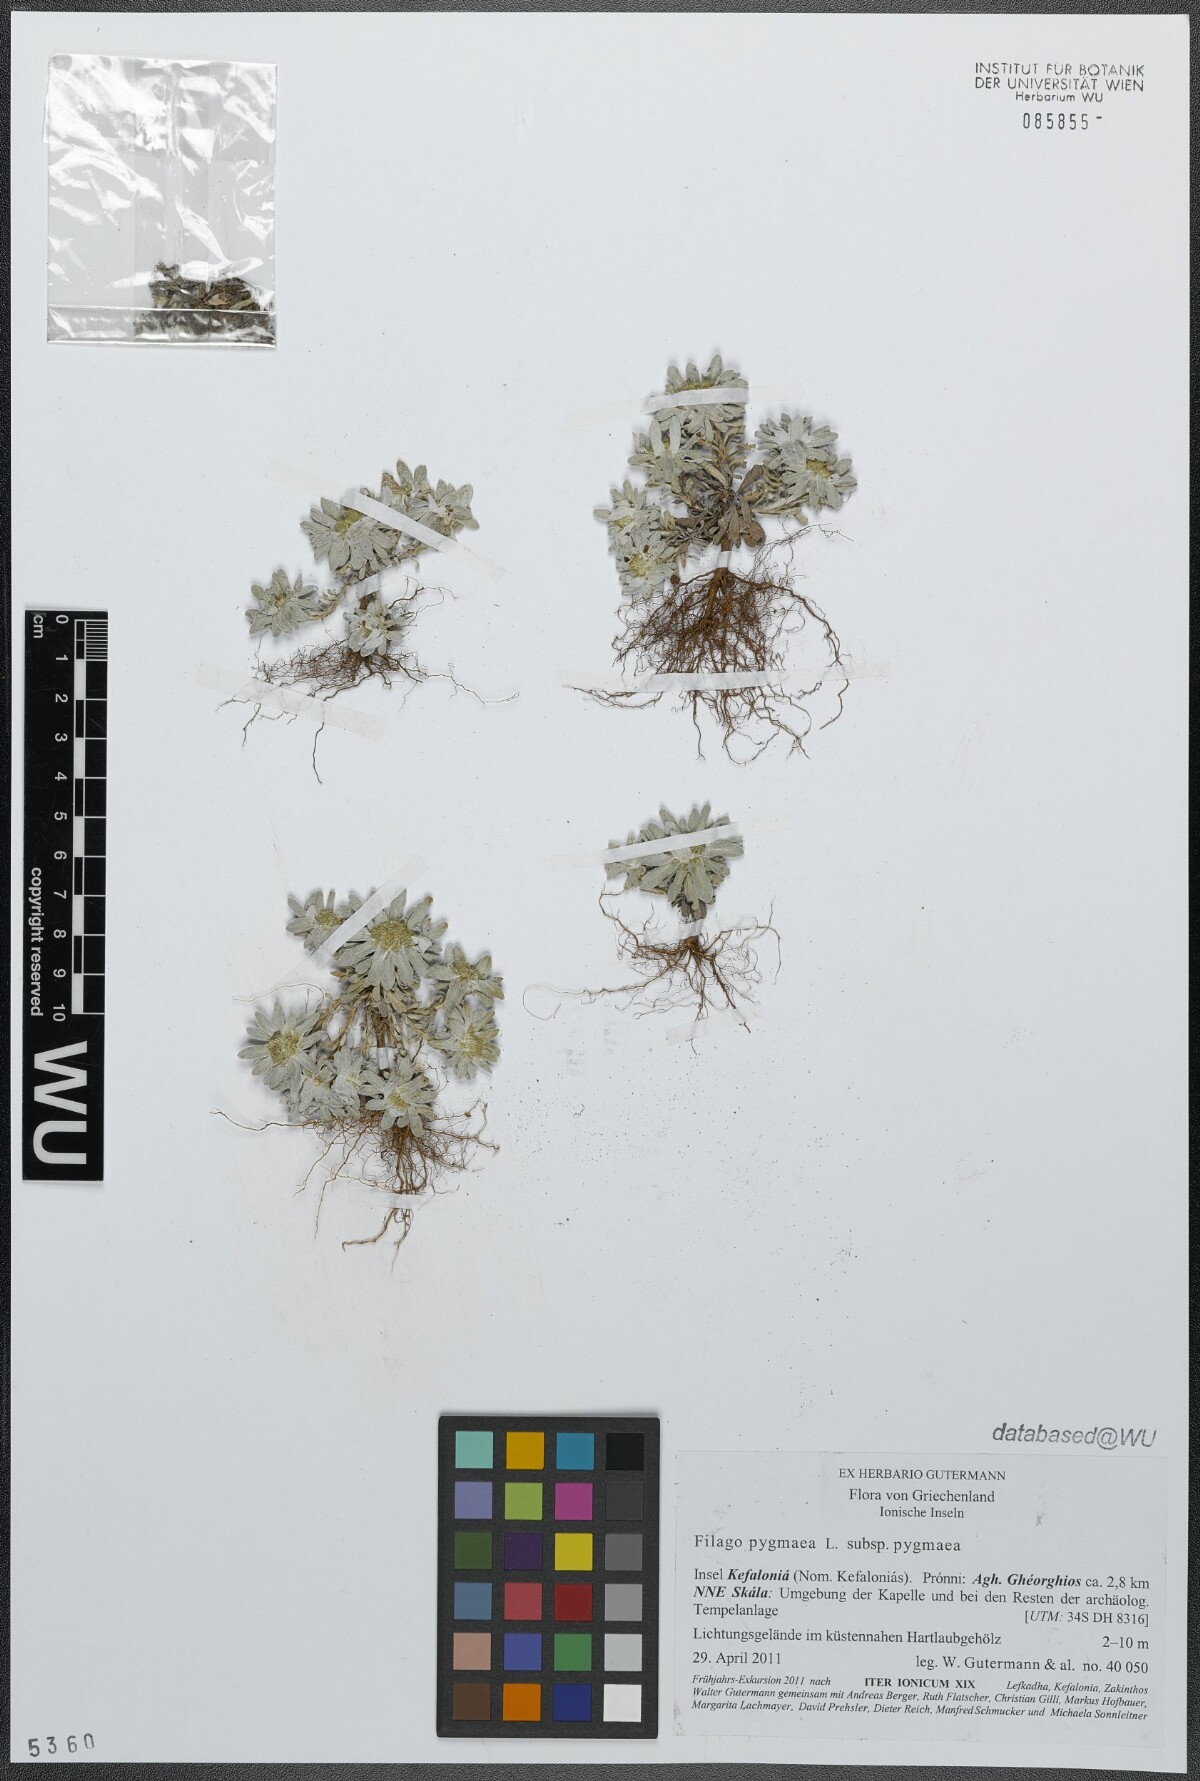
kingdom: Plantae
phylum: Tracheophyta
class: Magnoliopsida
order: Asterales
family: Asteraceae
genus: Filago
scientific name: Filago pygmaea
